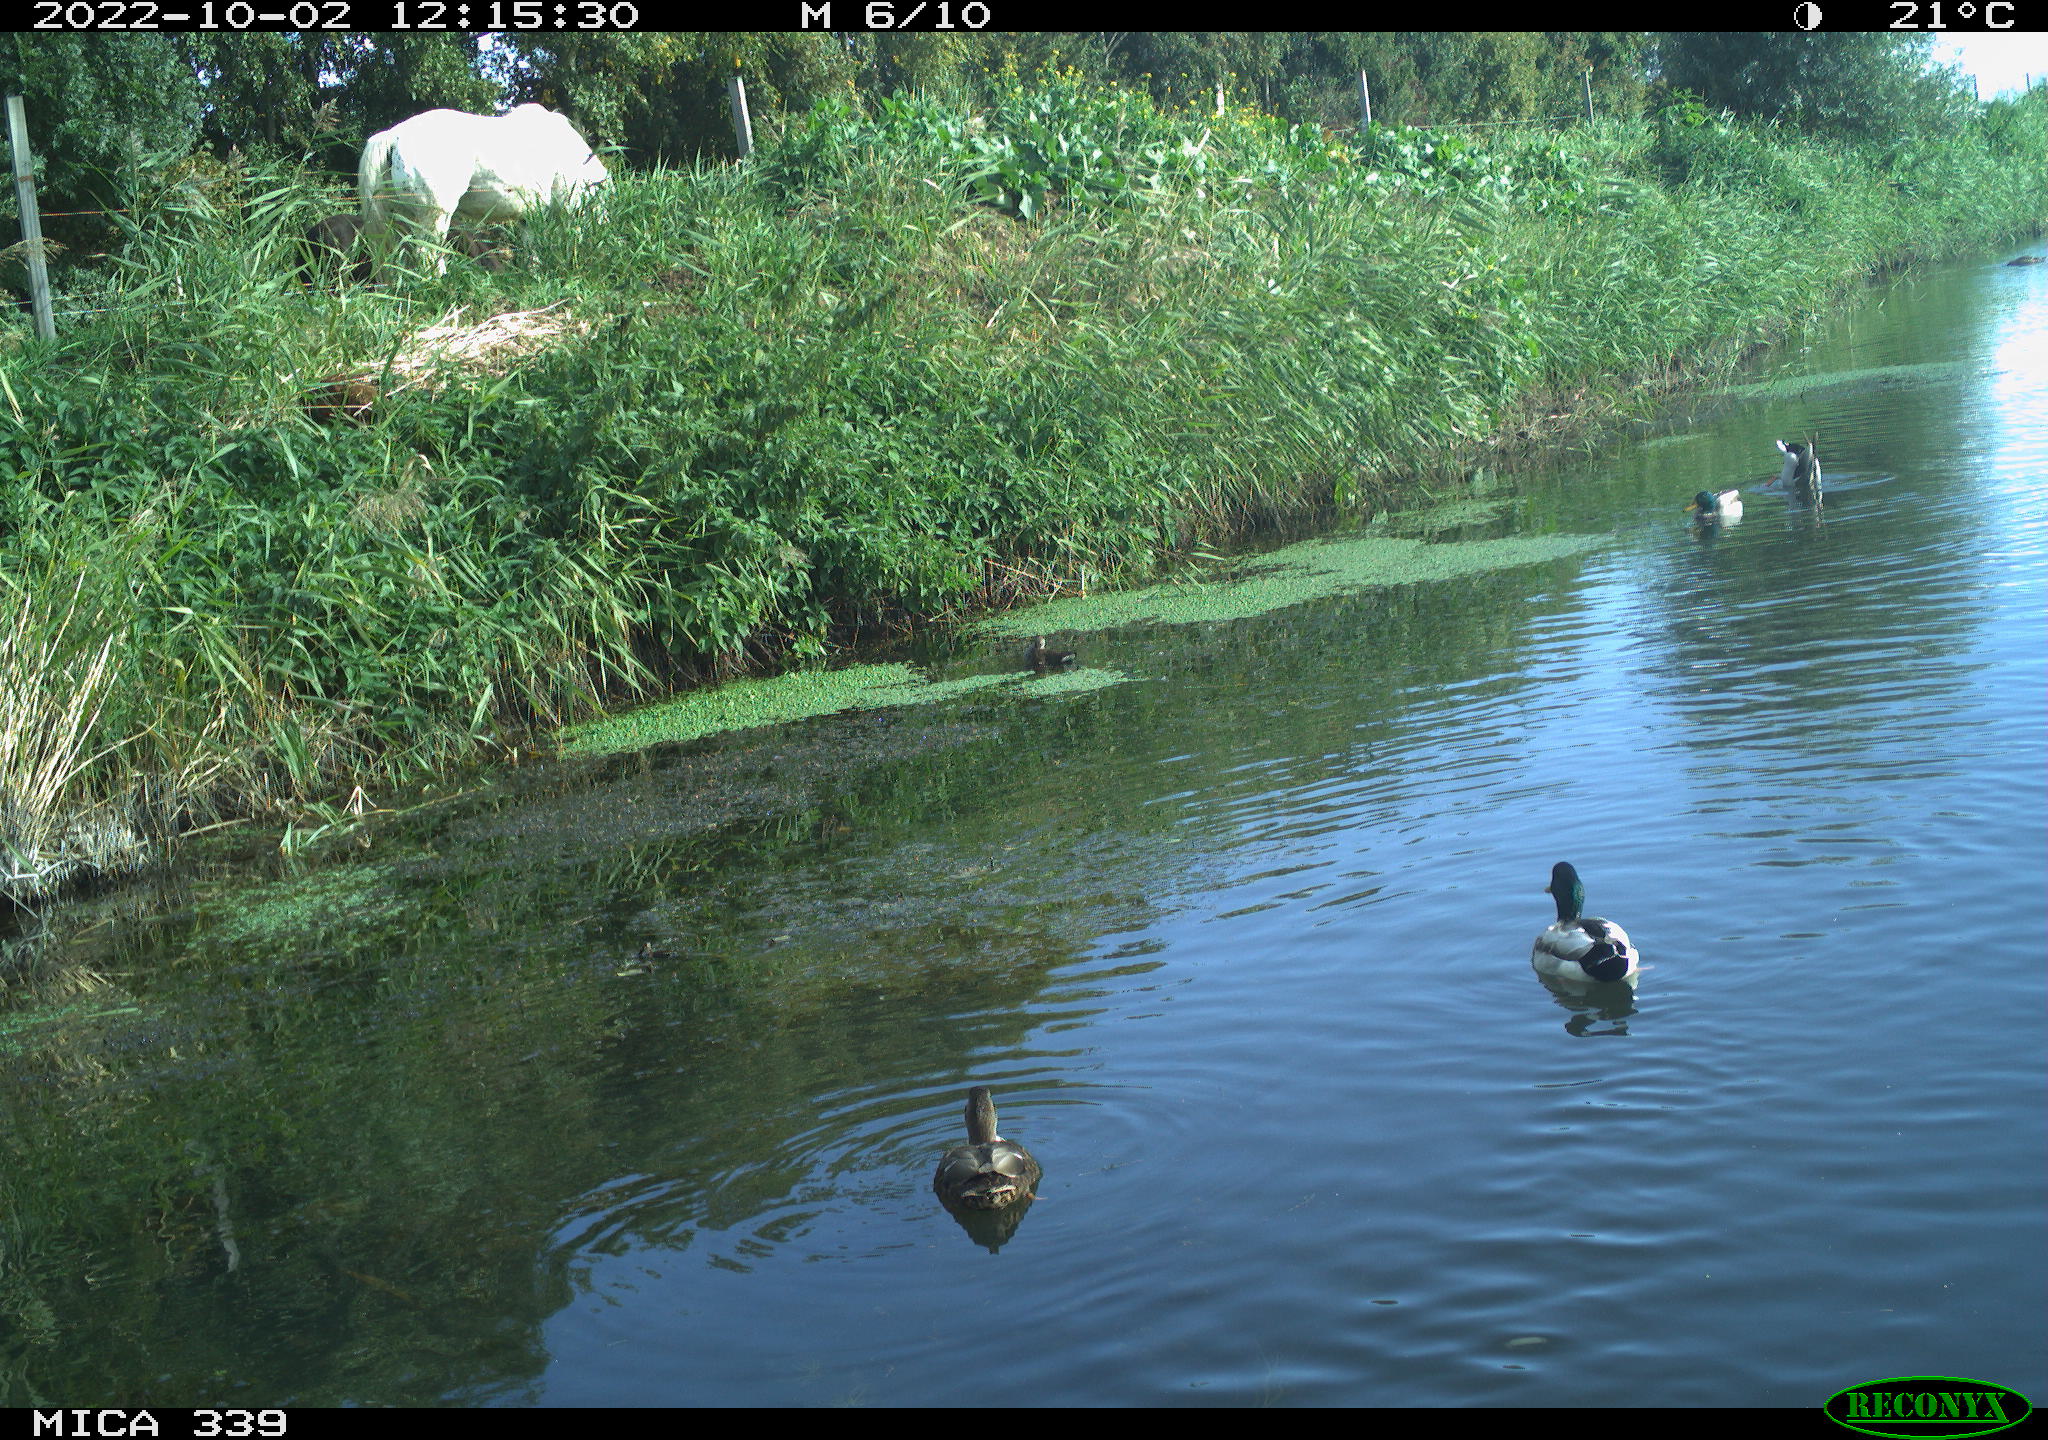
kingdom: Animalia
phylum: Chordata
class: Aves
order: Anseriformes
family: Anatidae
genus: Anas
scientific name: Anas platyrhynchos
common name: Mallard
